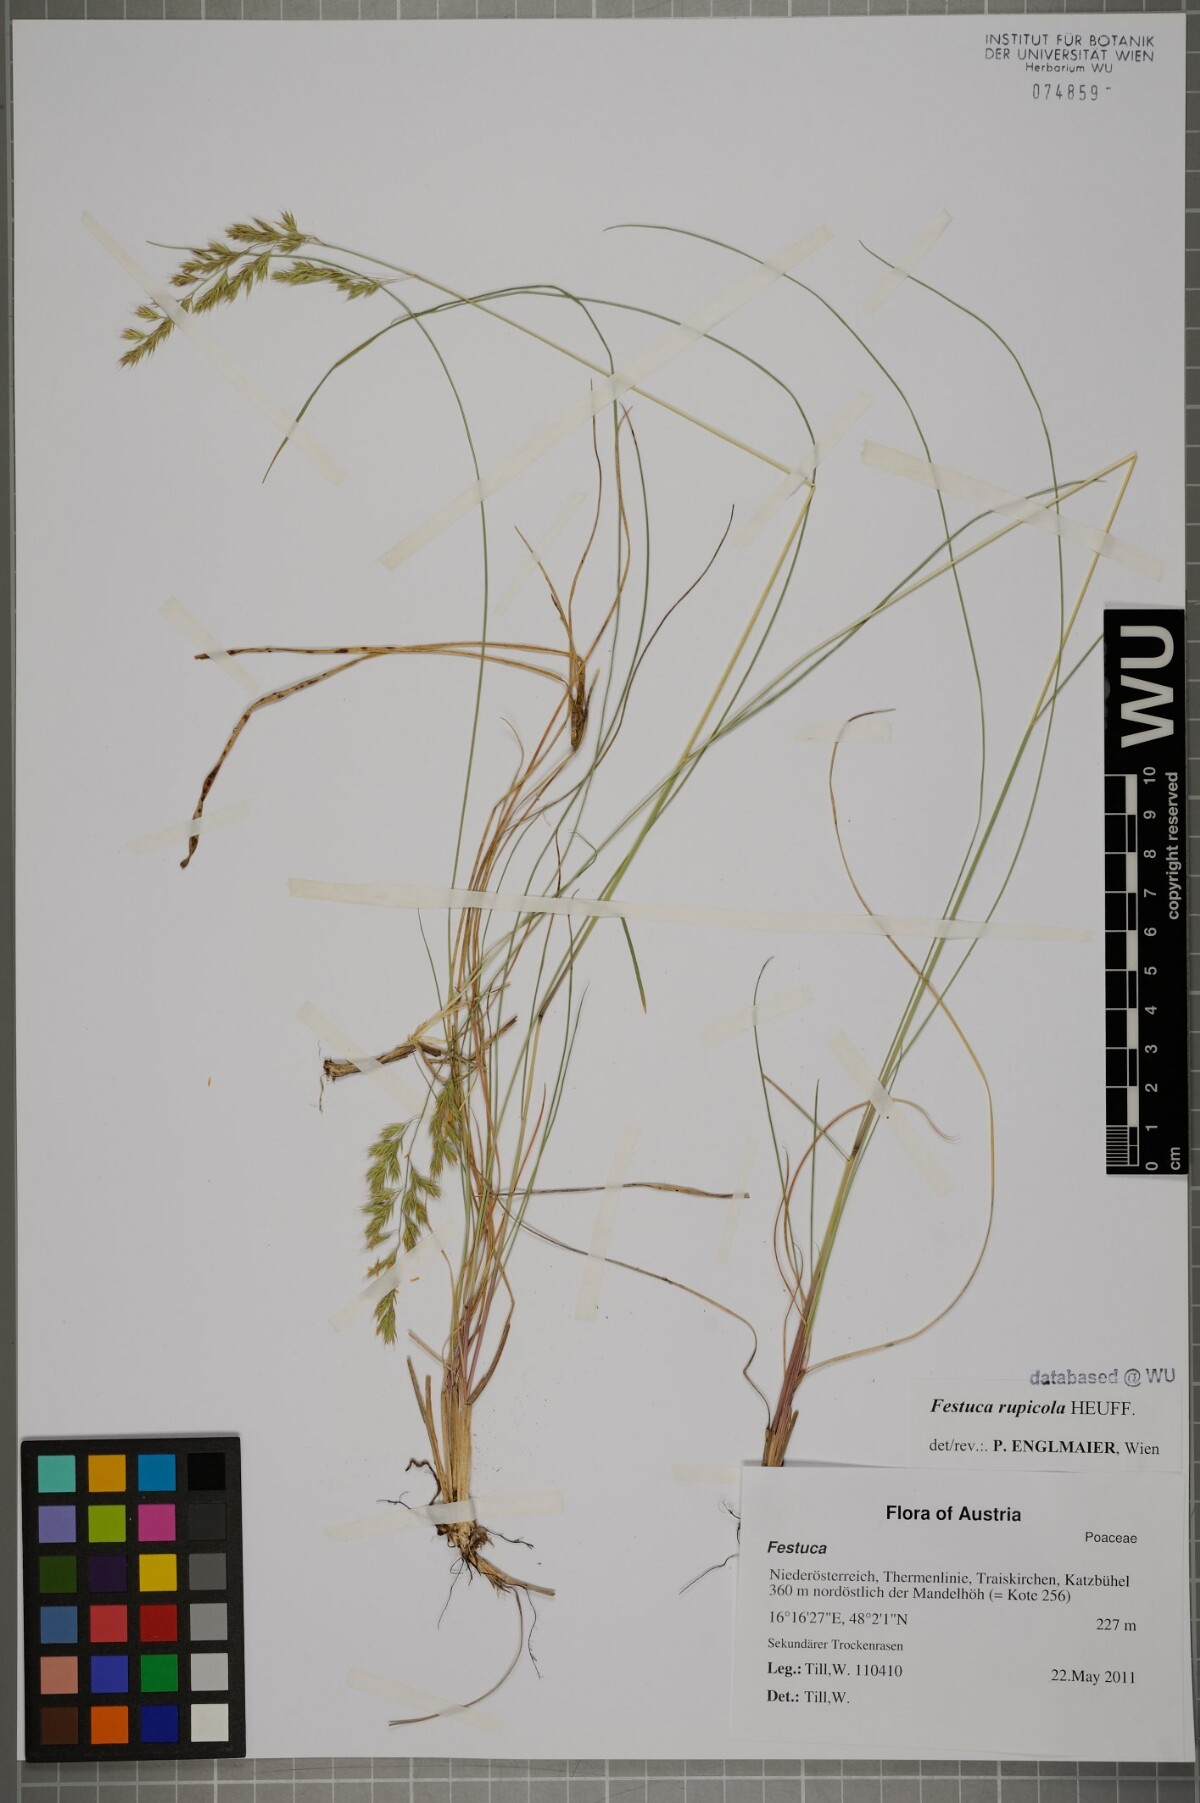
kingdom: Plantae
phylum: Tracheophyta
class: Liliopsida
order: Poales
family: Poaceae
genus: Festuca
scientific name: Festuca rupicola
